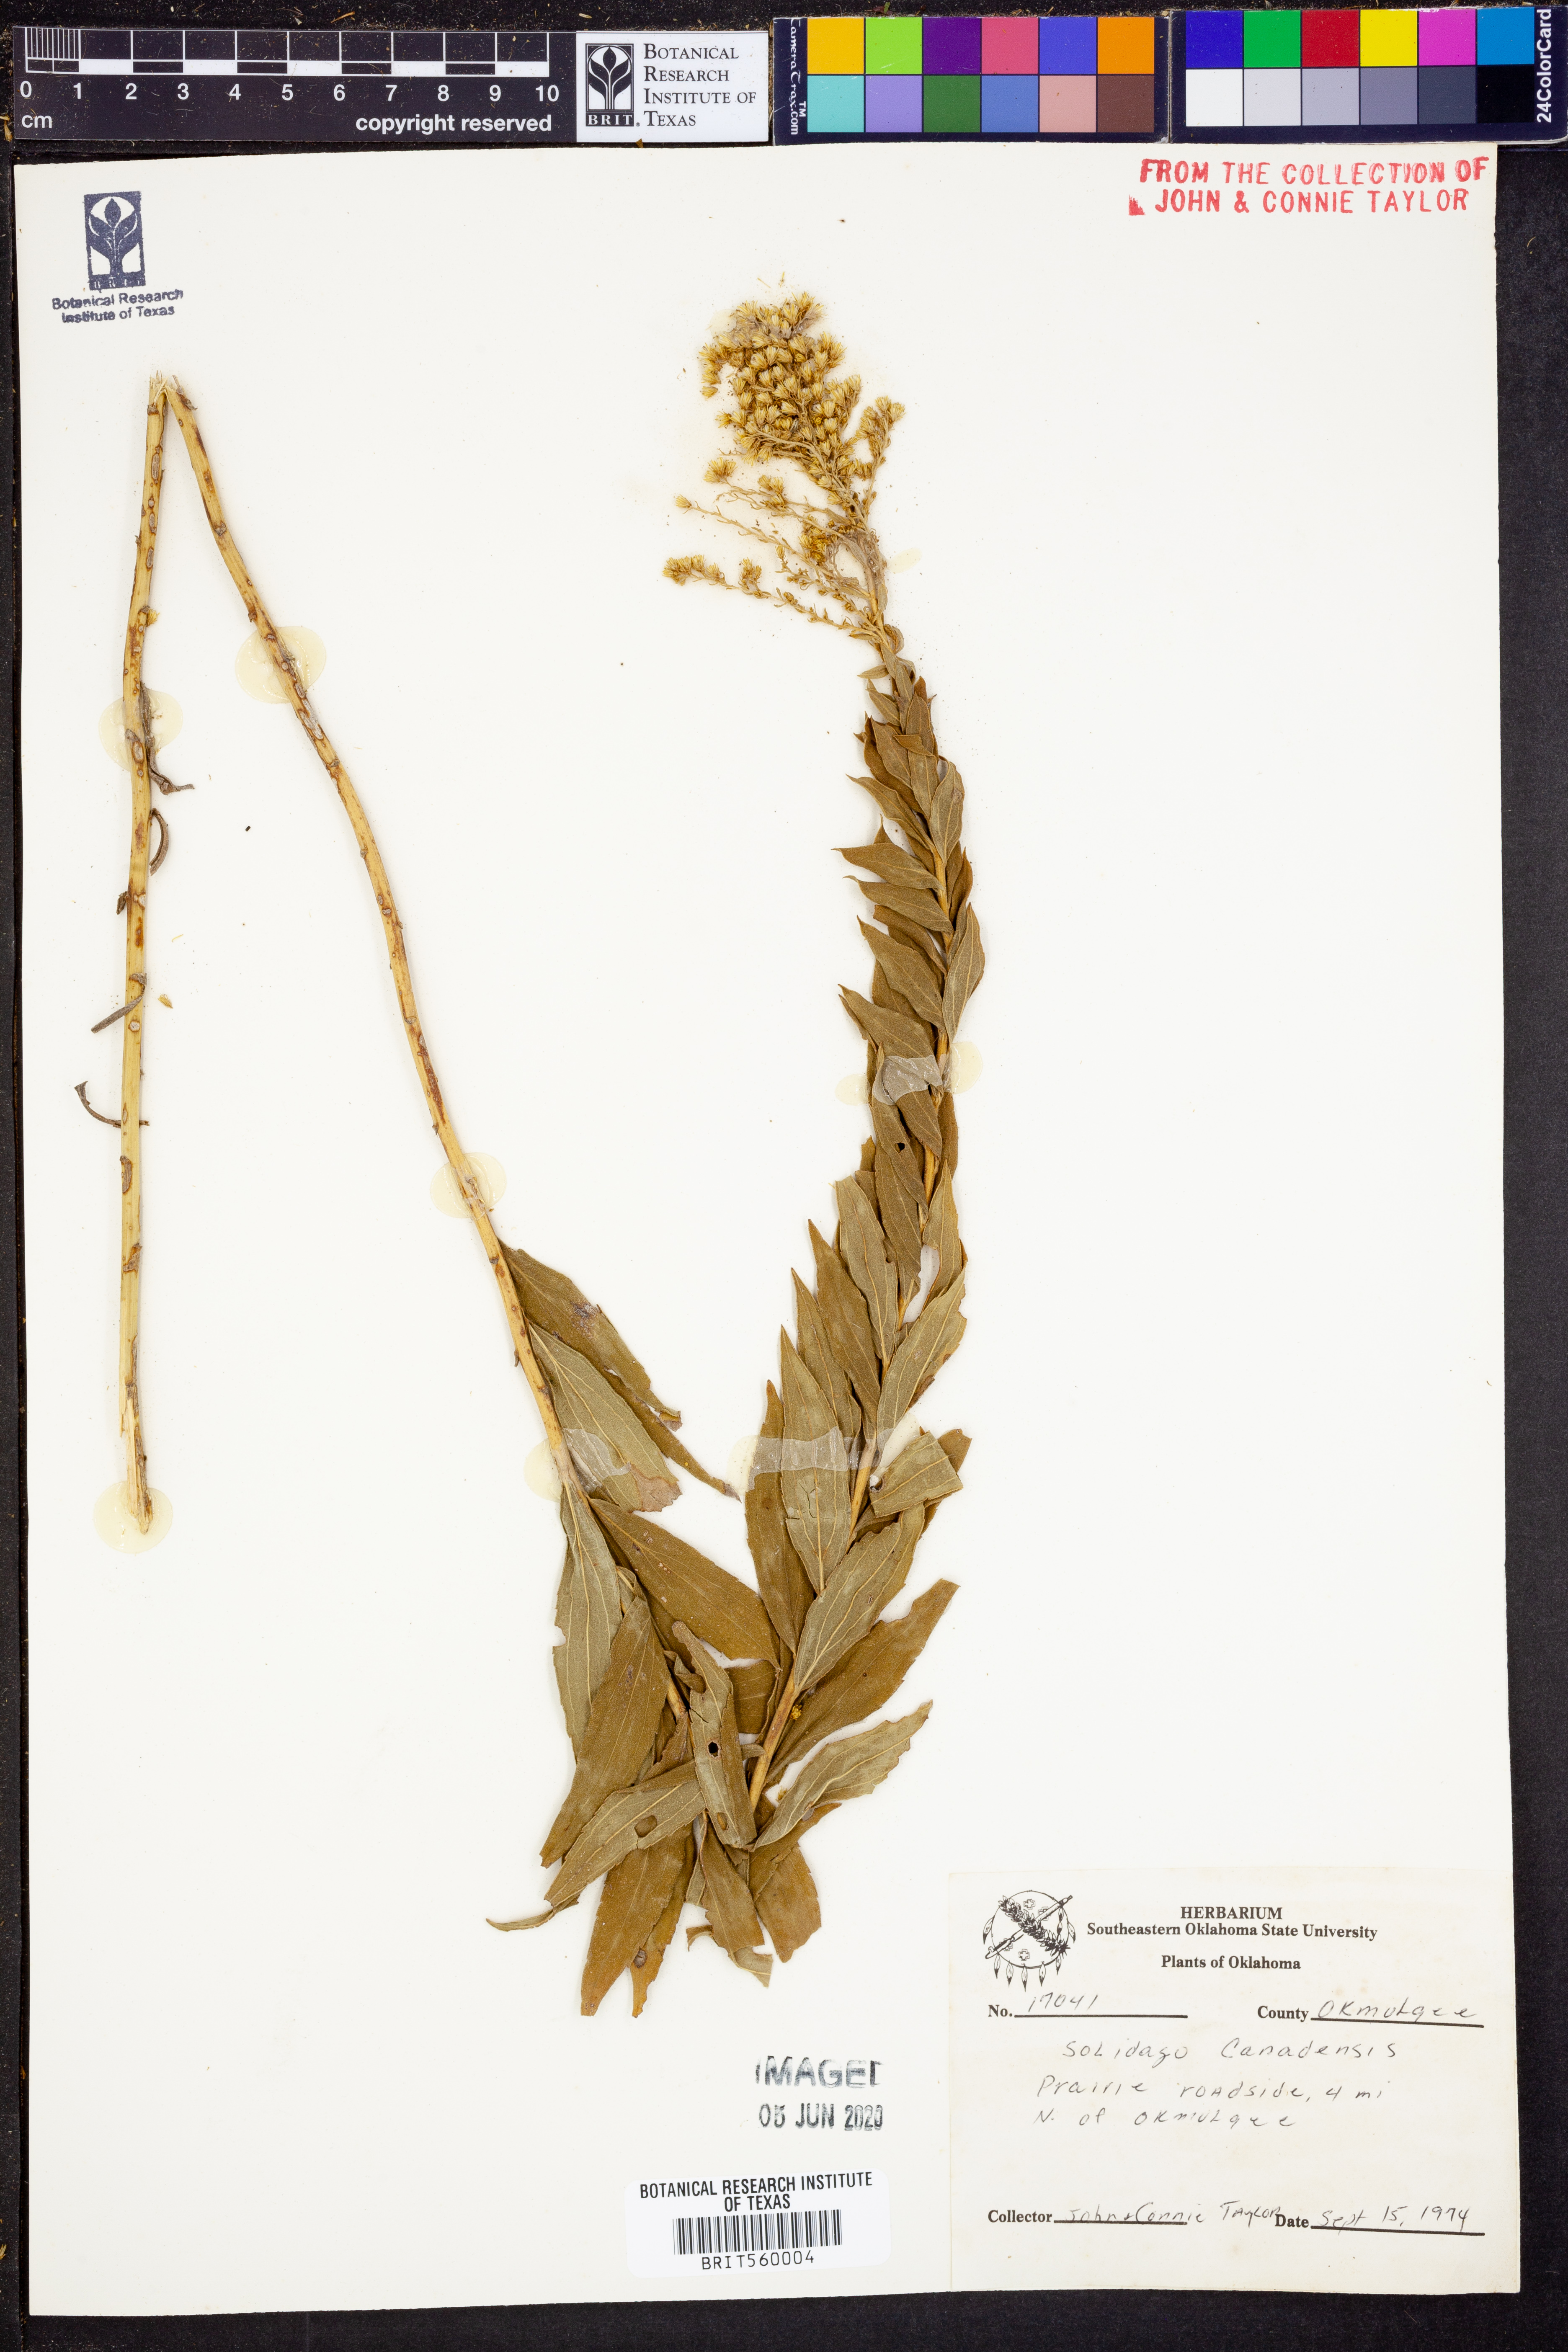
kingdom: Plantae
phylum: Tracheophyta
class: Magnoliopsida
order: Asterales
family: Asteraceae
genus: Solidago
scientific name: Solidago canadensis
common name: Canada goldenrod
